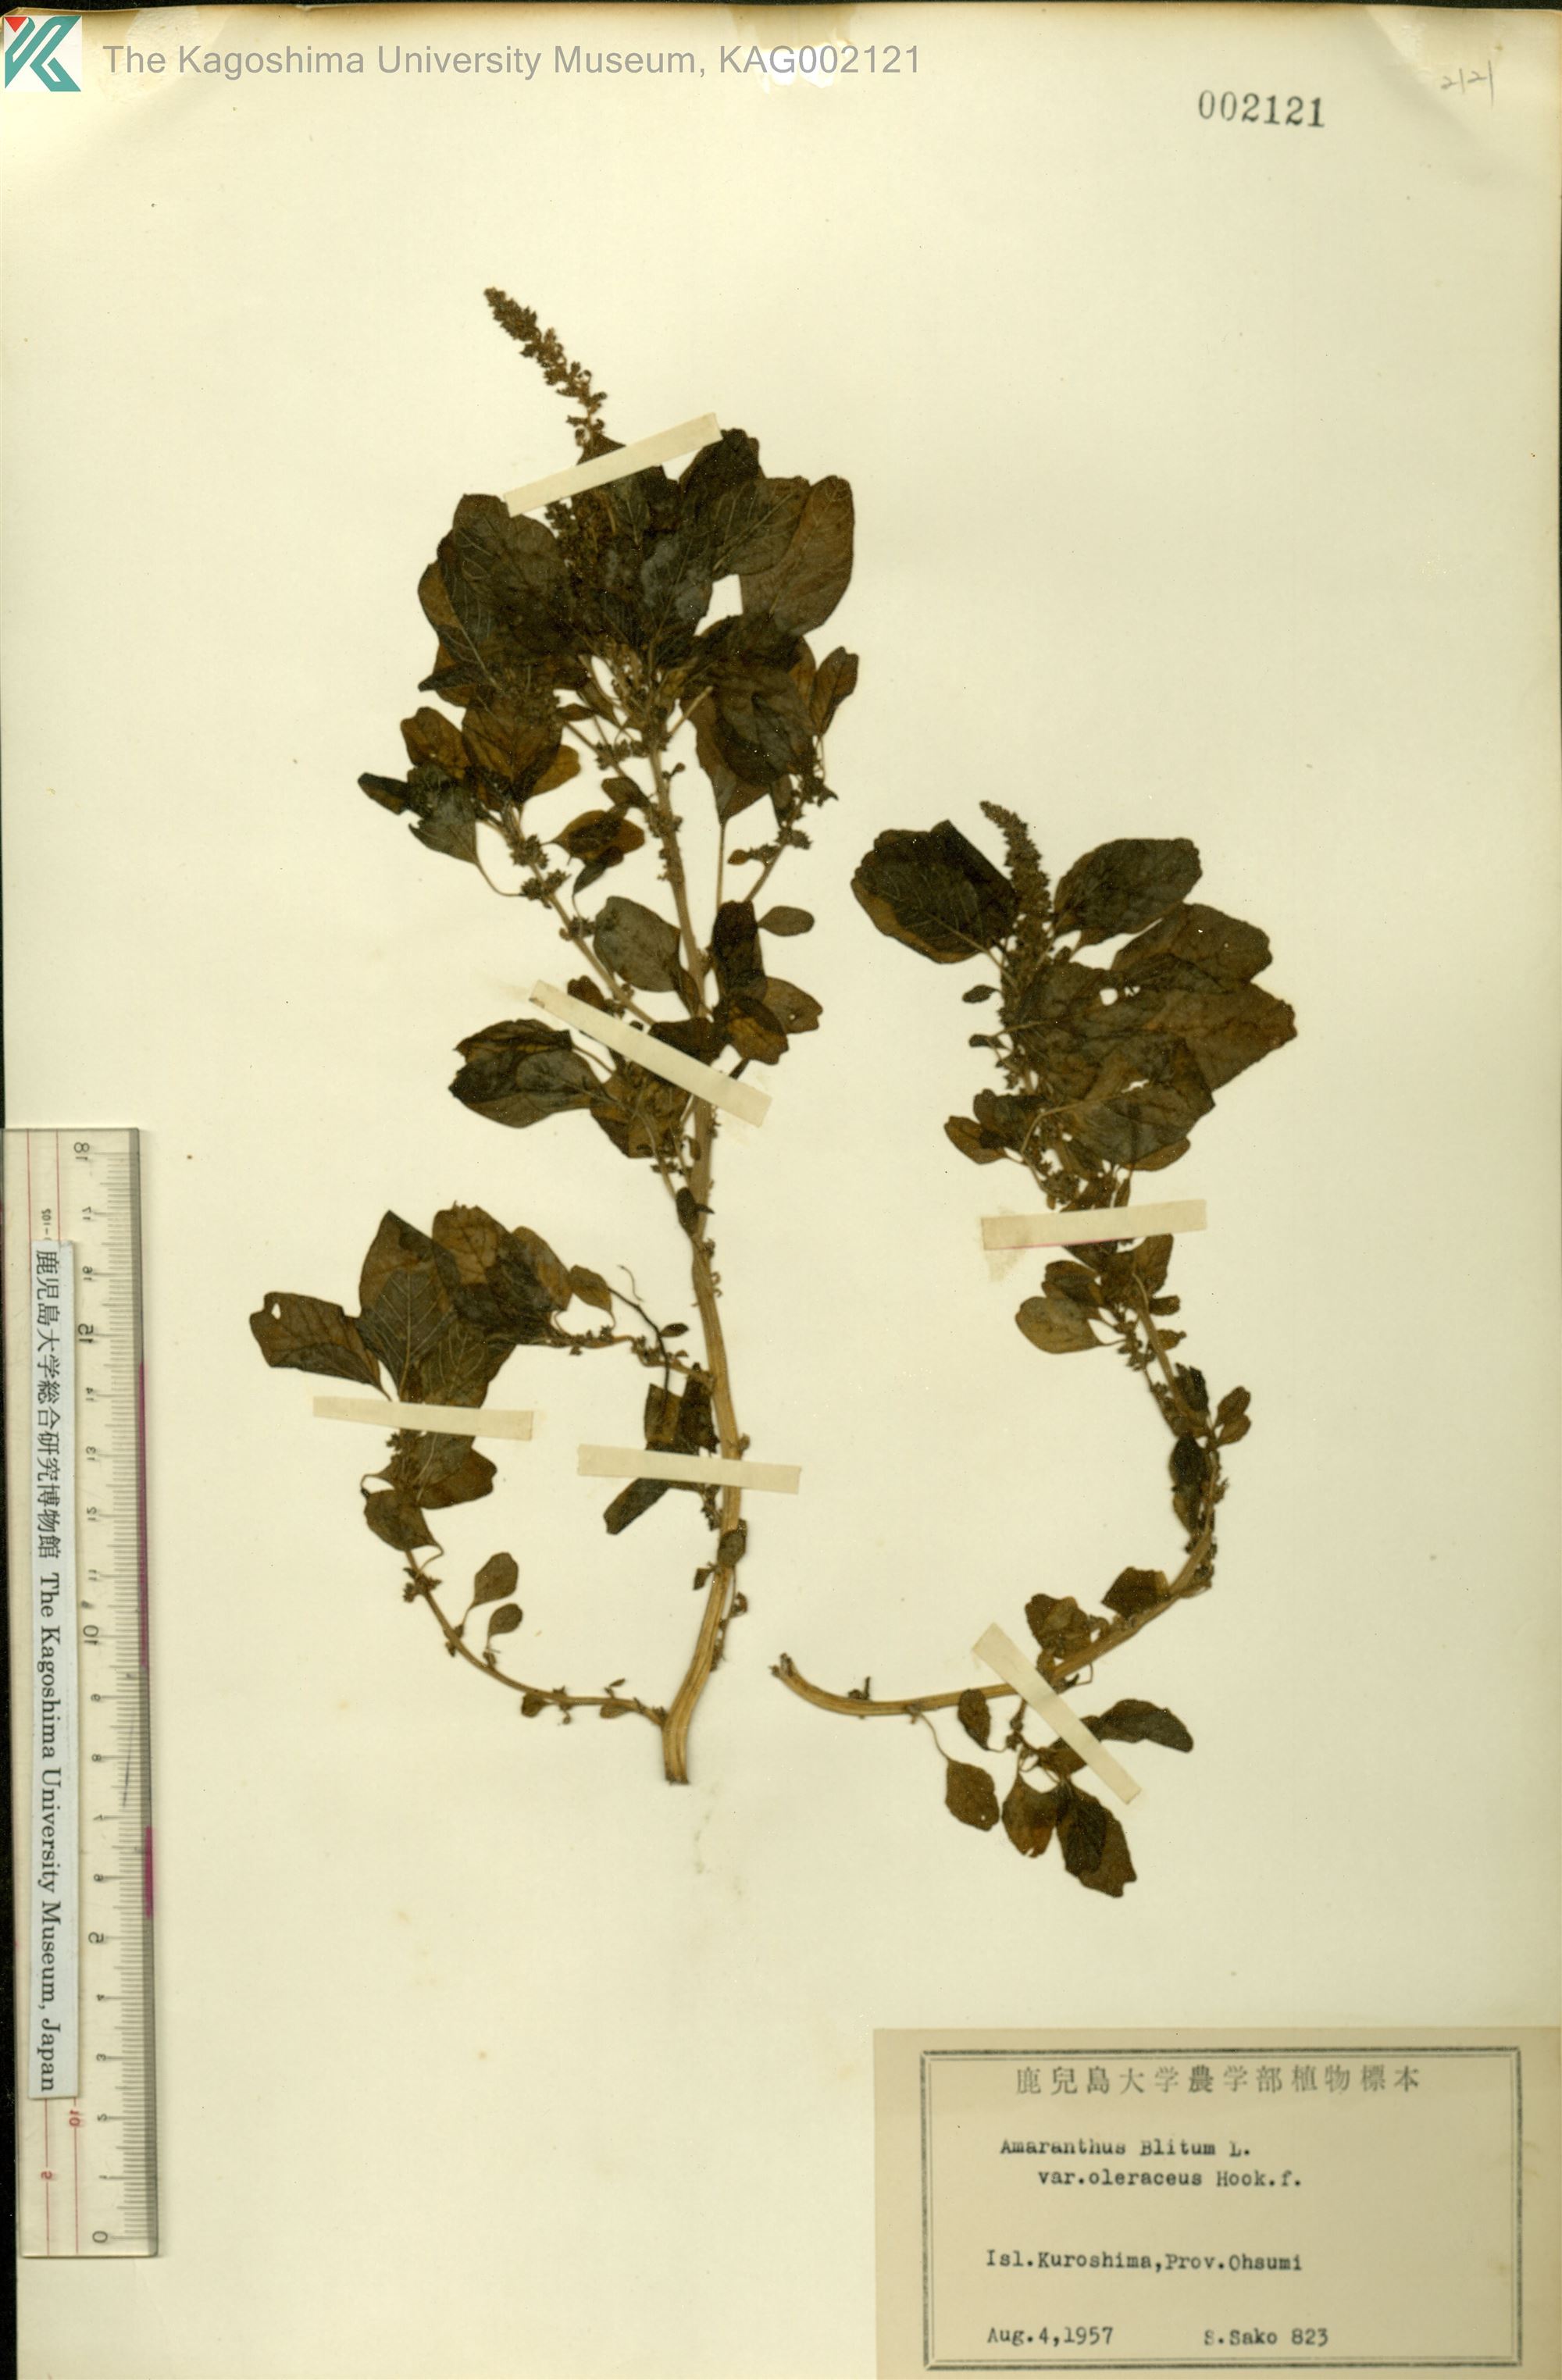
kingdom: Plantae
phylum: Tracheophyta
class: Magnoliopsida
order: Caryophyllales
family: Amaranthaceae
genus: Amaranthus
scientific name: Amaranthus blitum
